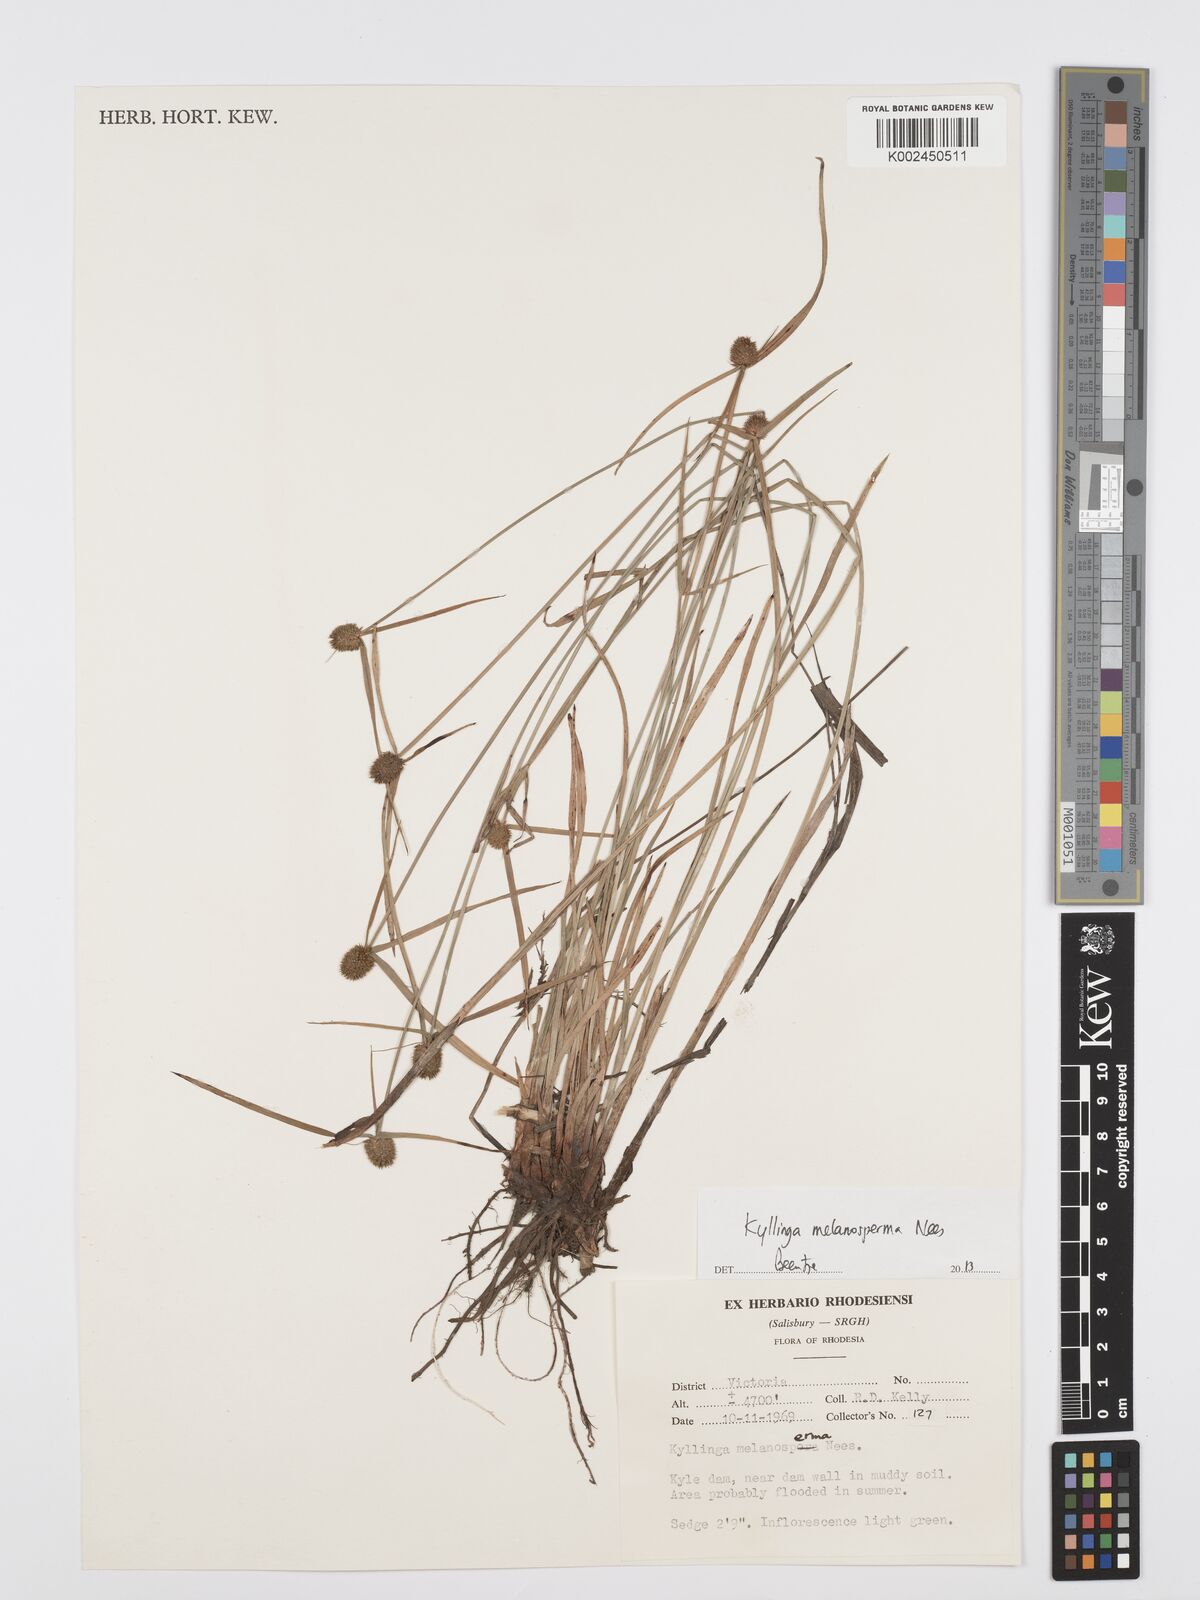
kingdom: Plantae
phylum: Tracheophyta
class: Liliopsida
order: Poales
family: Cyperaceae
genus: Cyperus
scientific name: Cyperus melanospermus
